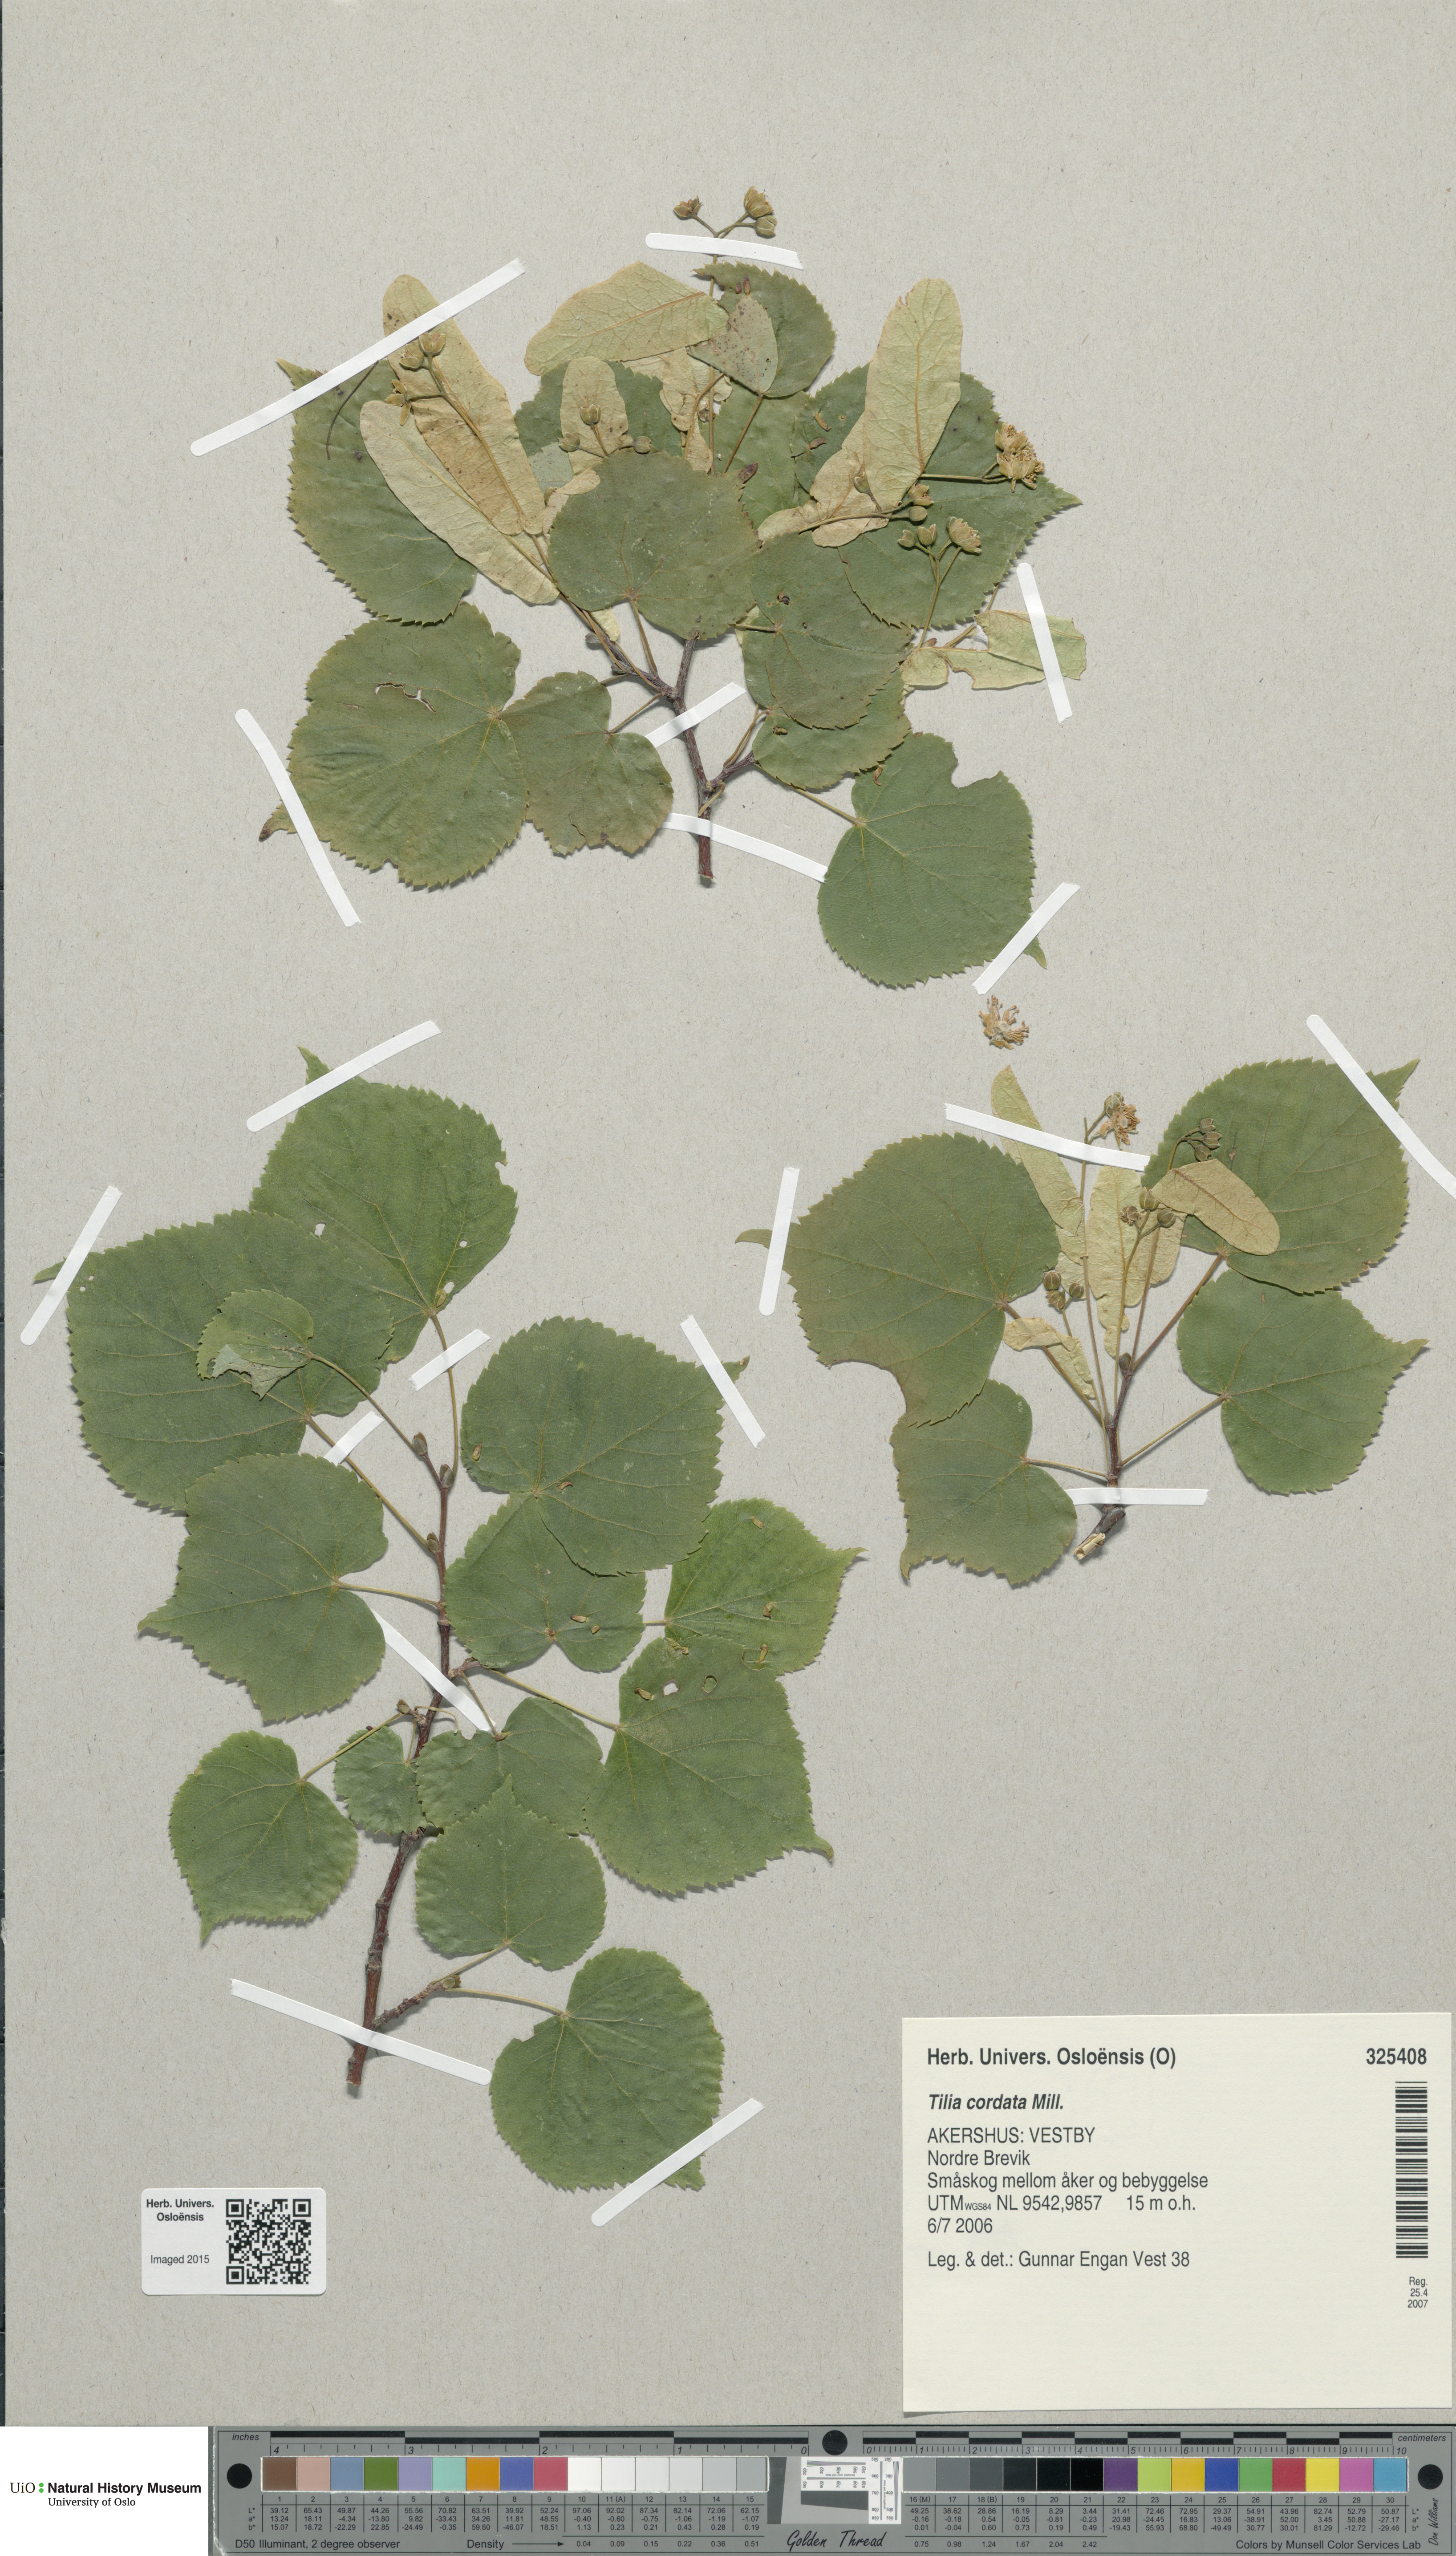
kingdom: Plantae
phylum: Tracheophyta
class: Magnoliopsida
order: Malvales
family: Malvaceae
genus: Tilia
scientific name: Tilia cordata
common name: Small-leaved lime
